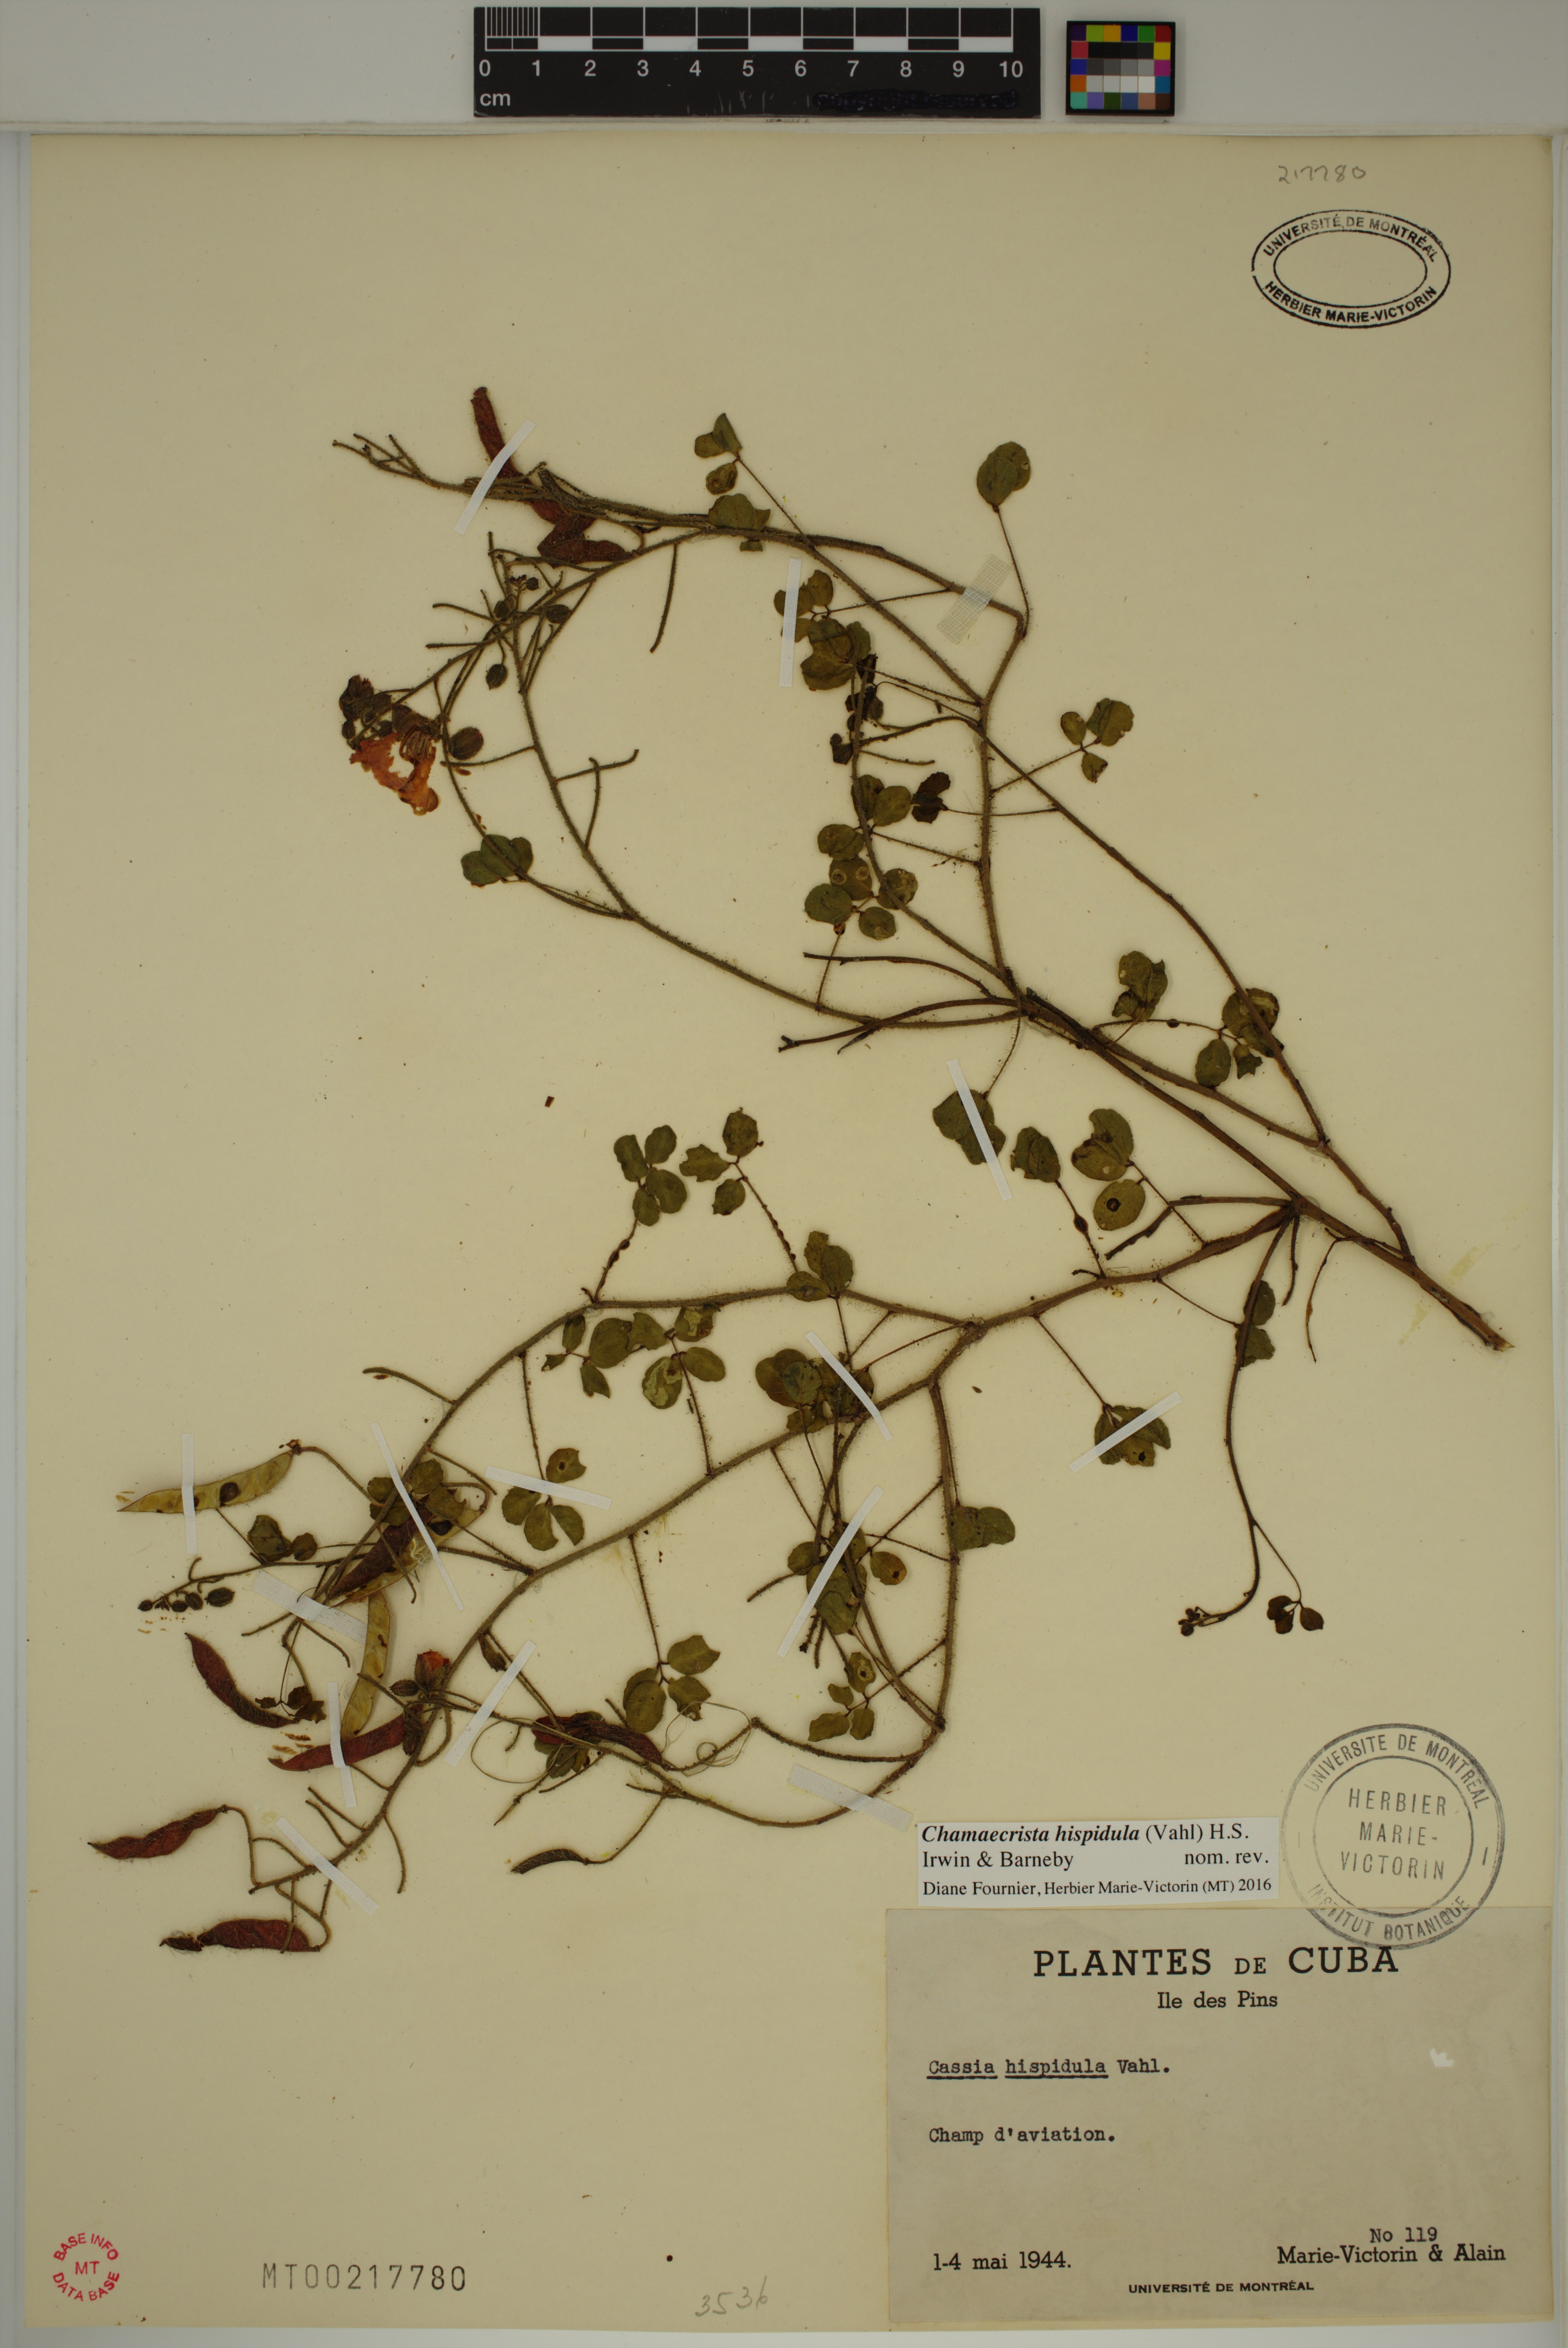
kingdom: Plantae
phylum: Tracheophyta
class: Magnoliopsida
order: Fabales
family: Fabaceae
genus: Chamaecrista
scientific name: Chamaecrista hispidula
